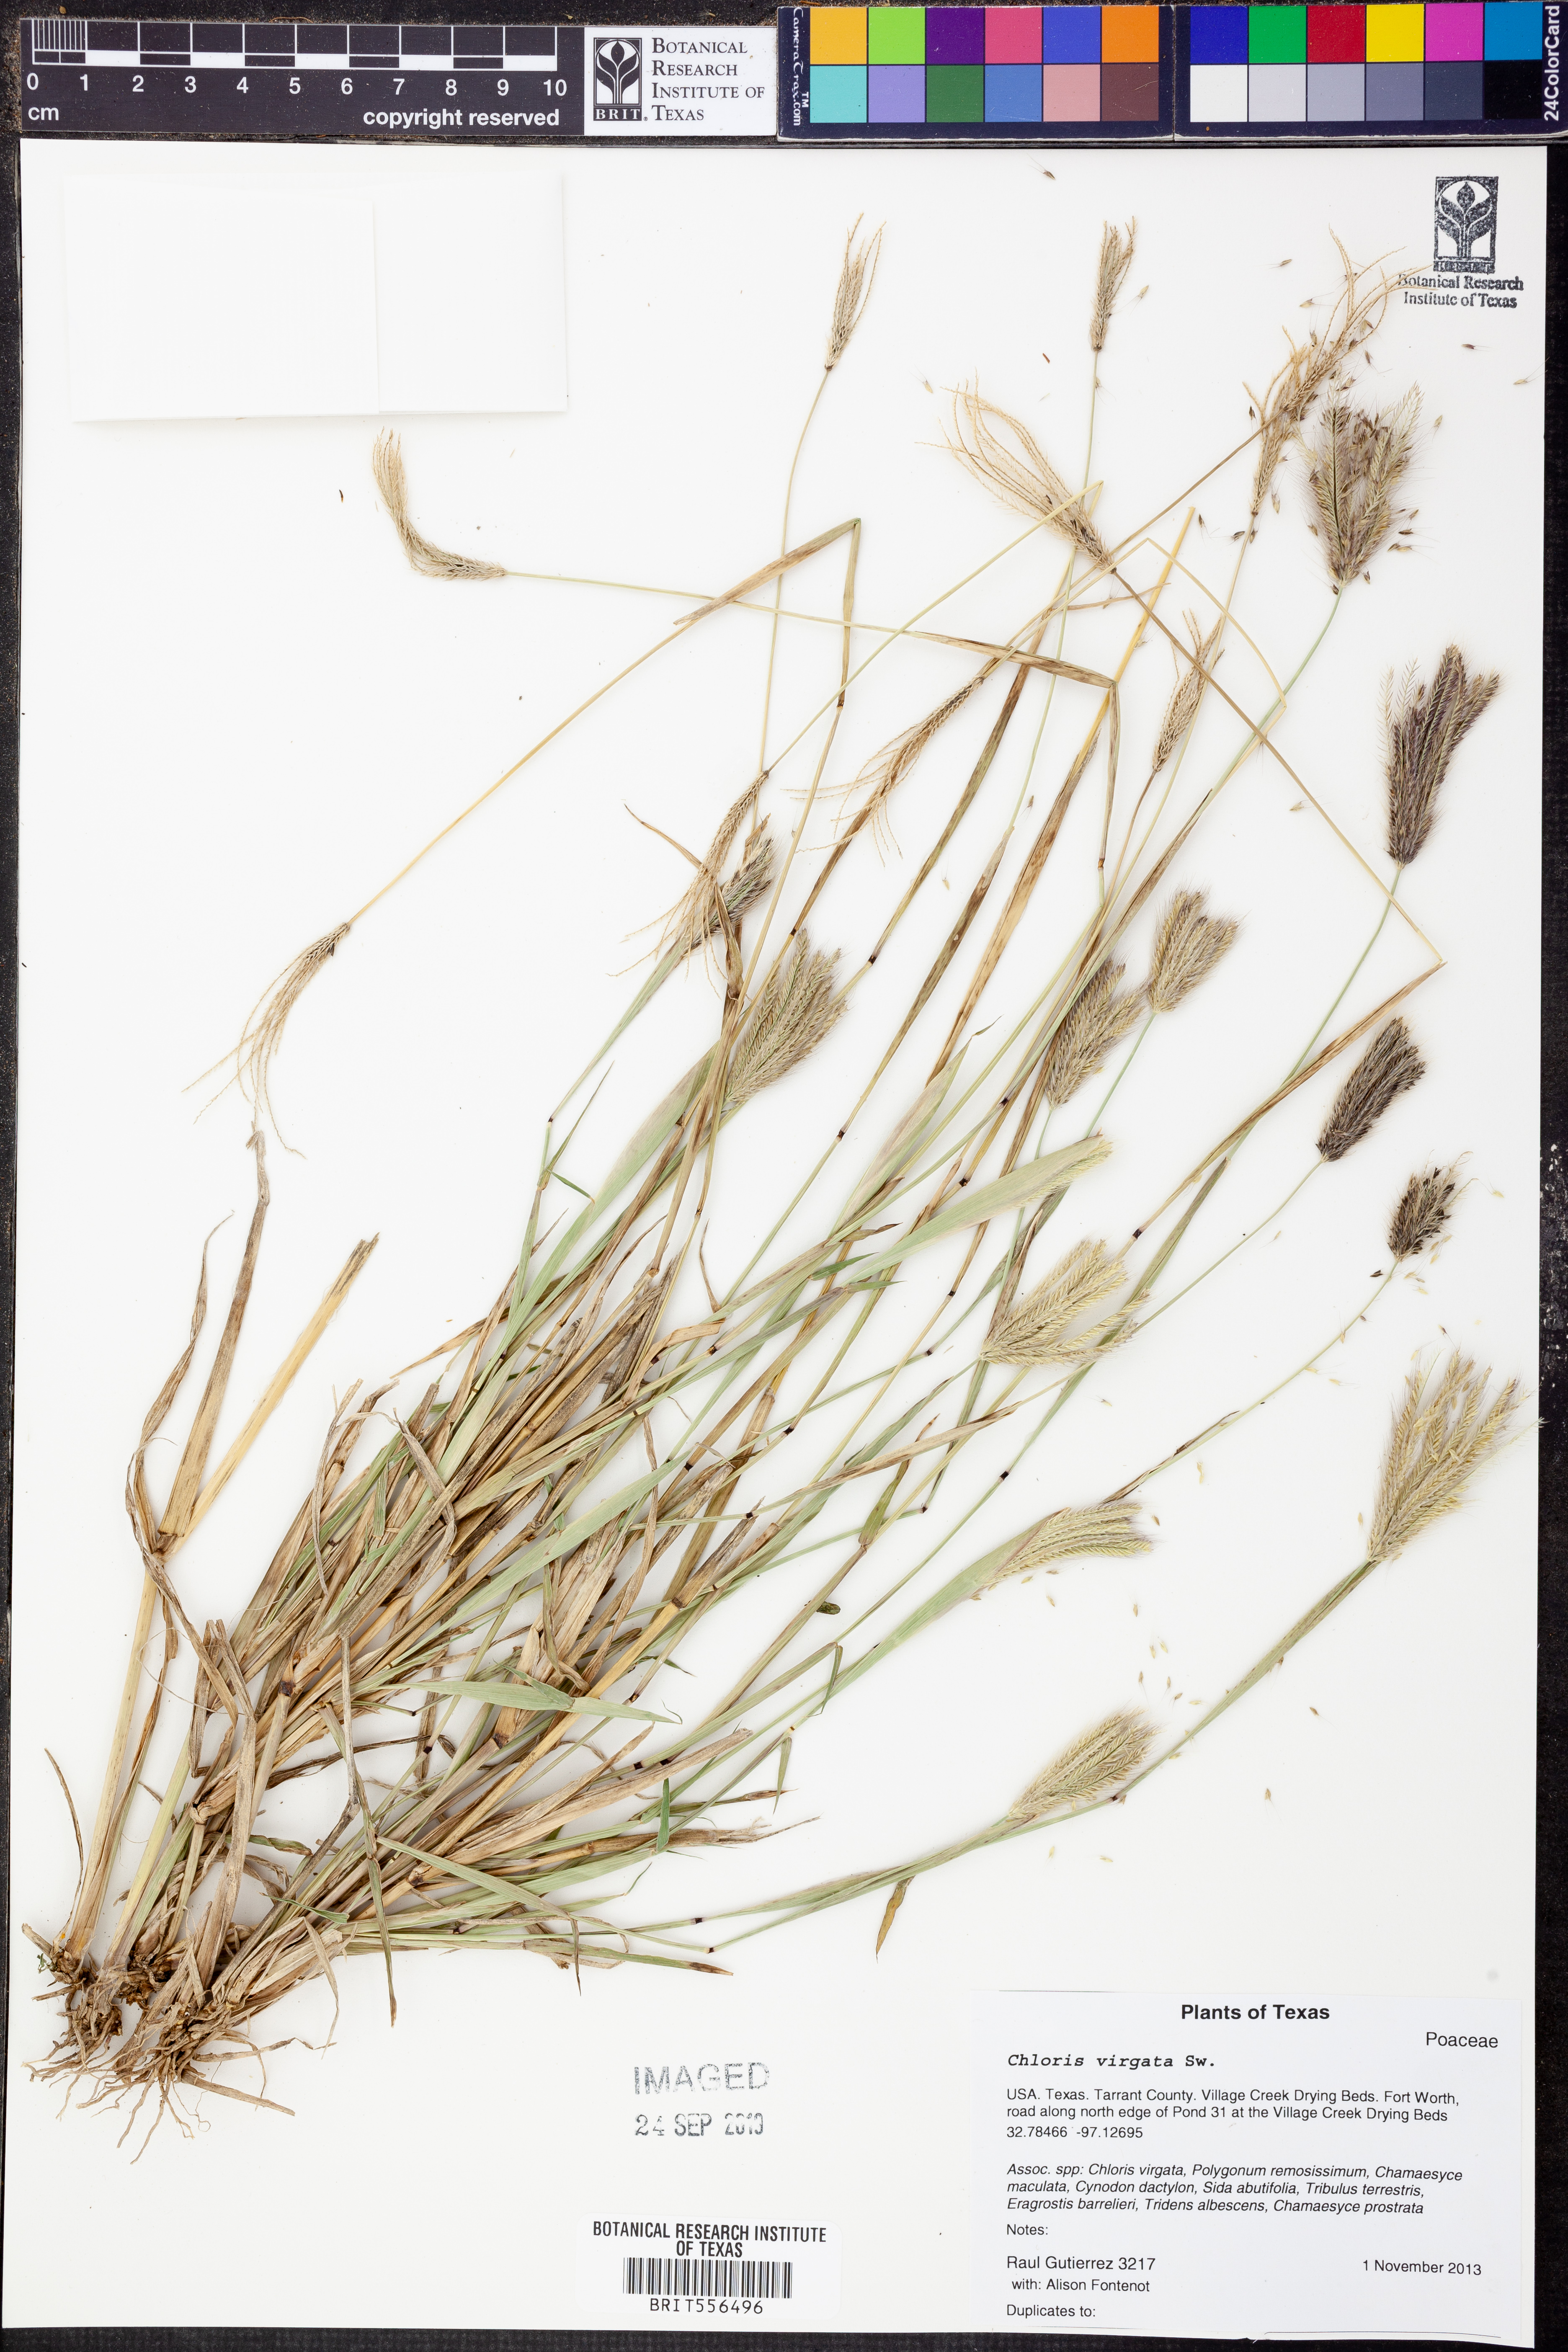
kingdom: Plantae
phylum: Tracheophyta
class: Liliopsida
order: Poales
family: Poaceae
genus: Chloris
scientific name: Chloris virgata
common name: Feathery rhodes-grass
